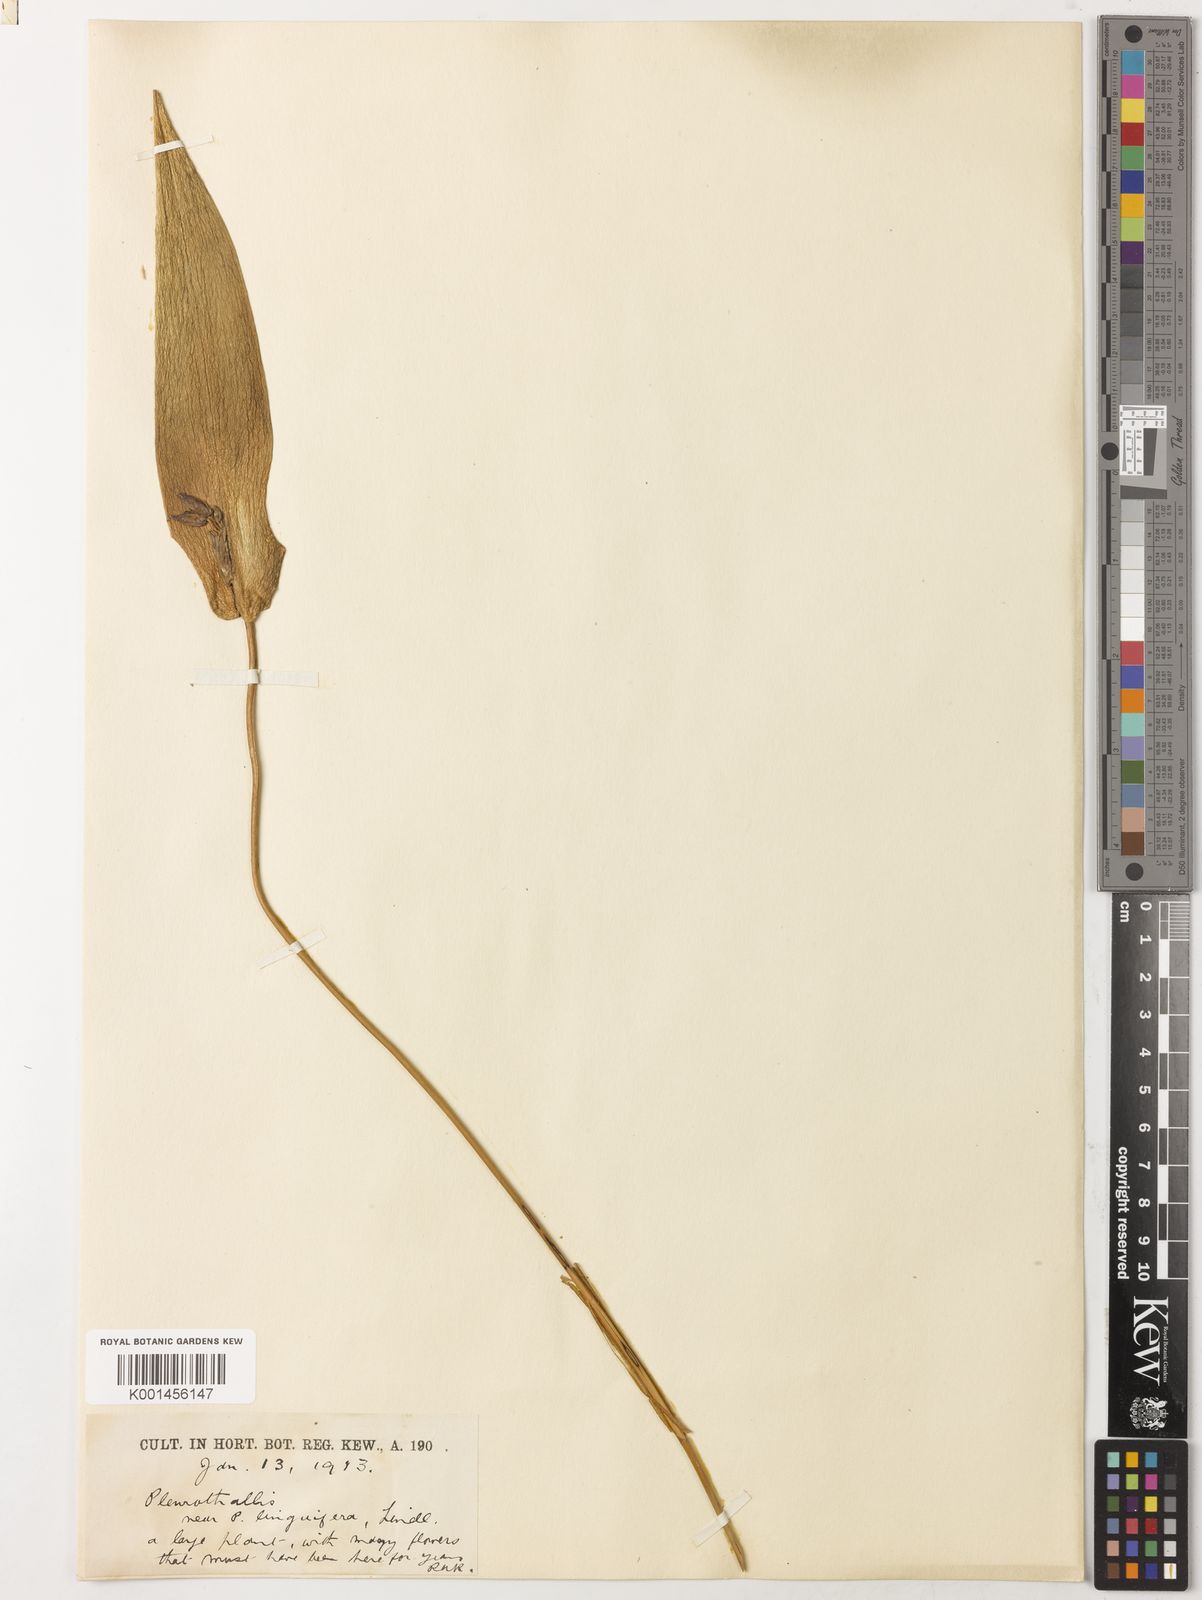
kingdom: Plantae
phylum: Tracheophyta
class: Liliopsida
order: Asparagales
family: Orchidaceae
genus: Pleurothallis
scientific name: Pleurothallis sotarae
